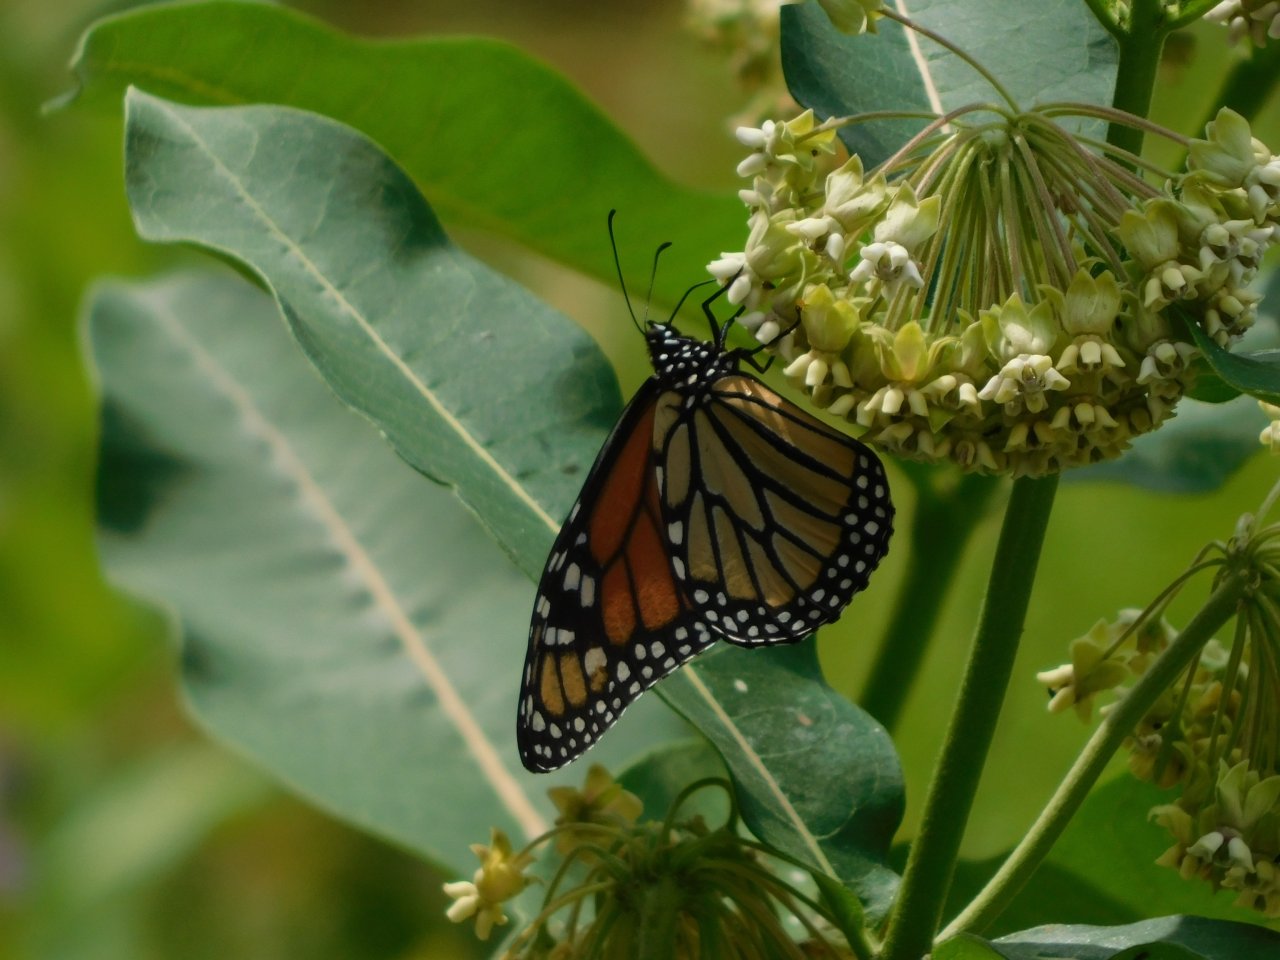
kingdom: Animalia
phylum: Arthropoda
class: Insecta
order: Lepidoptera
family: Nymphalidae
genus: Danaus
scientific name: Danaus plexippus
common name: Monarch
